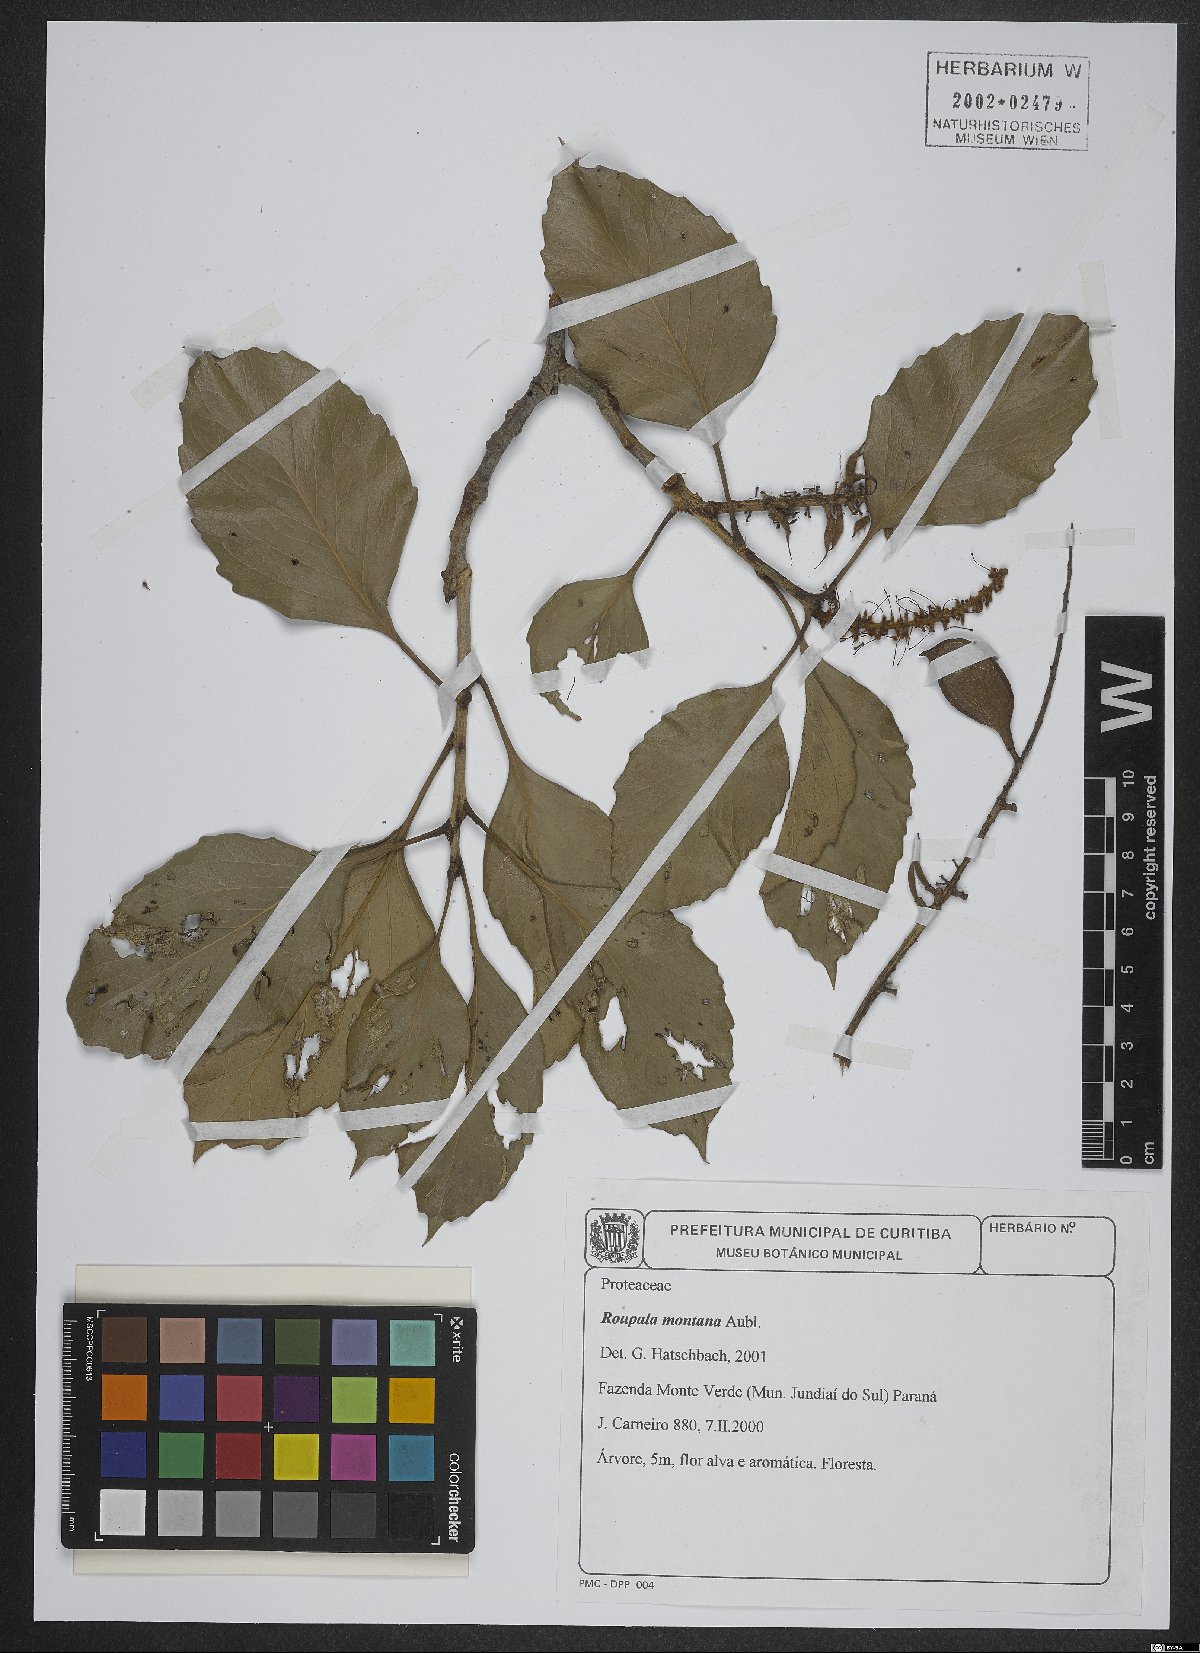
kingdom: Plantae
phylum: Tracheophyta
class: Magnoliopsida
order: Proteales
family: Proteaceae
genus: Roupala
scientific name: Roupala montana
